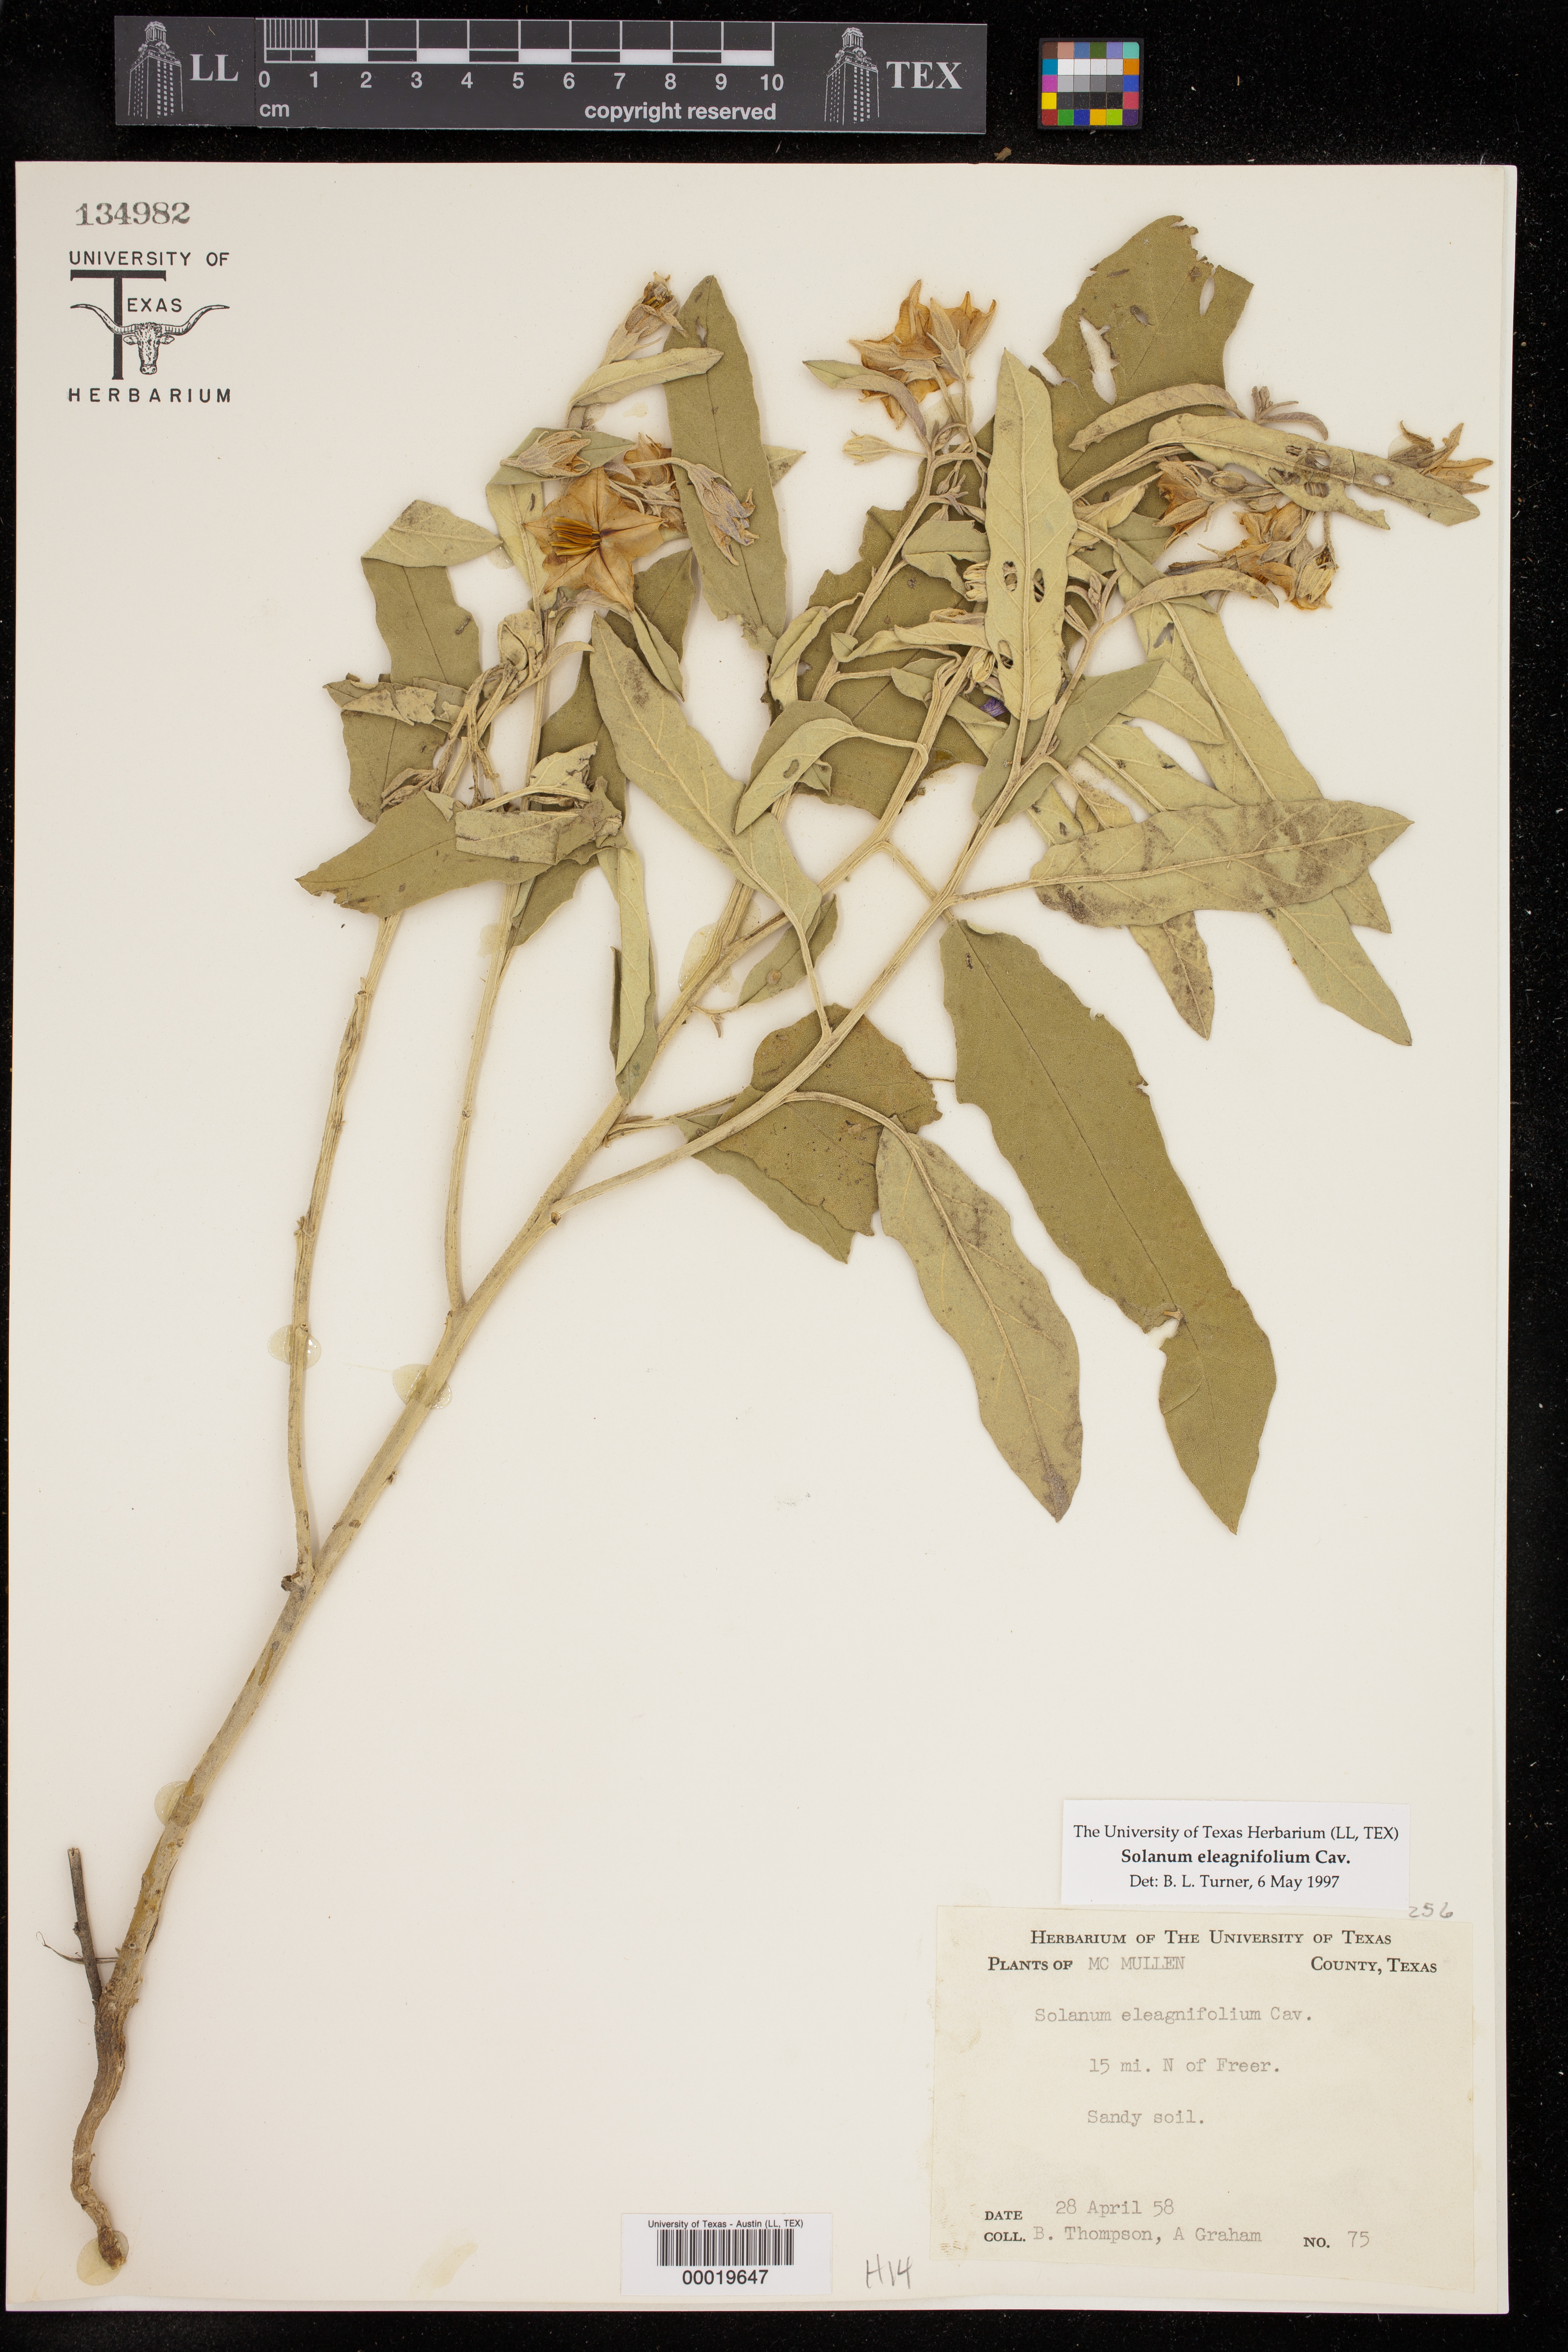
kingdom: Plantae
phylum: Tracheophyta
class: Magnoliopsida
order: Solanales
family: Solanaceae
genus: Solanum
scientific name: Solanum elaeagnifolium
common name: Silverleaf nightshade
